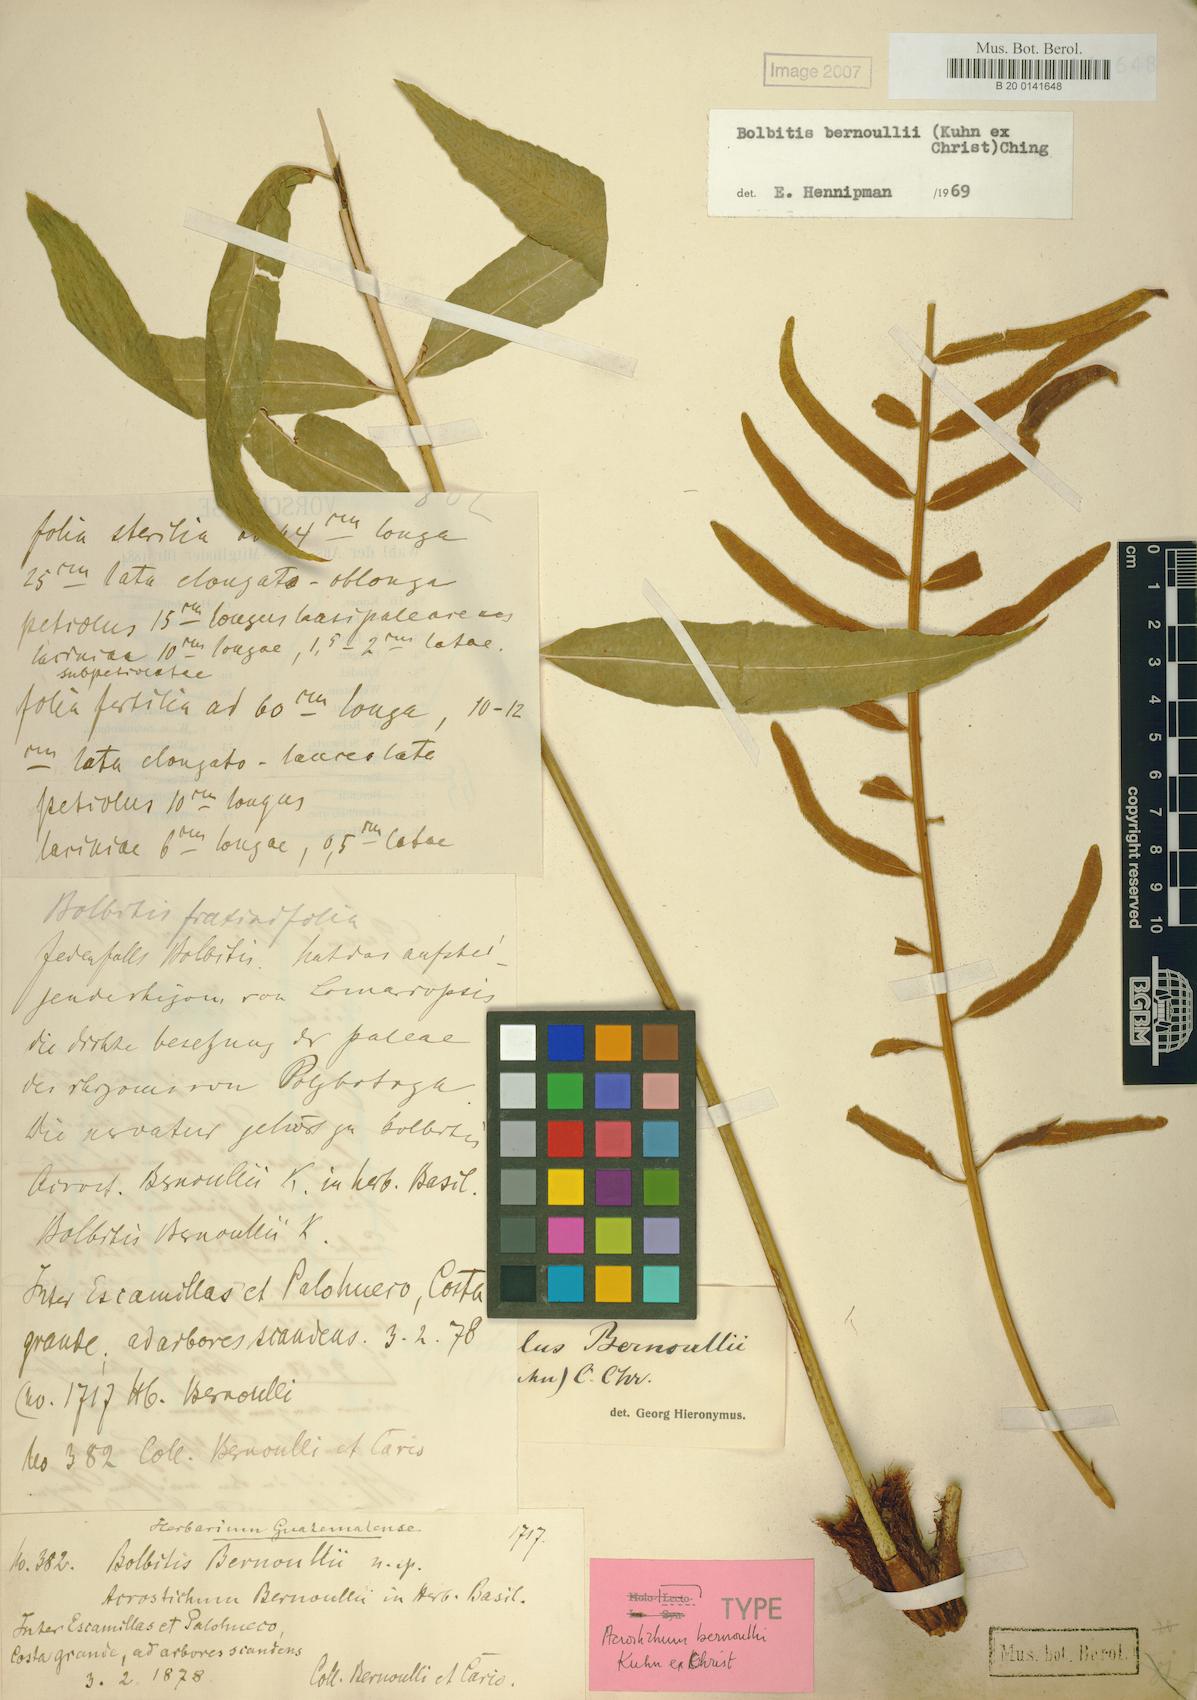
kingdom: Plantae
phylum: Tracheophyta
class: Polypodiopsida
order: Polypodiales
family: Polypodiaceae
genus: Leptochilus
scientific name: Leptochilus bernouhii
